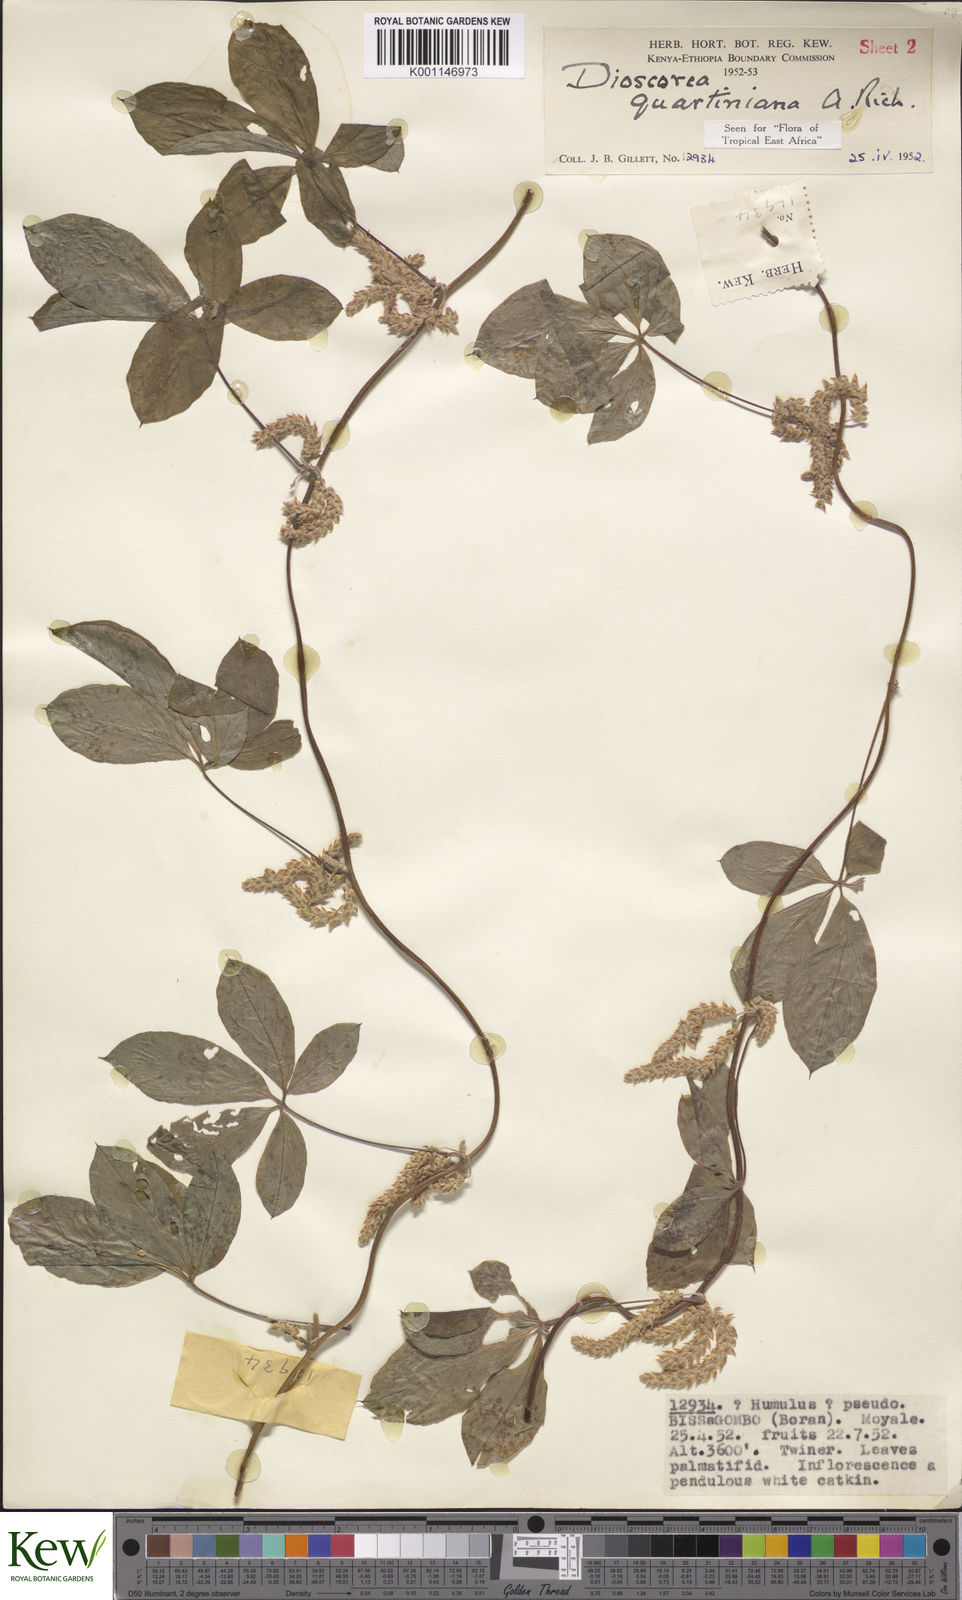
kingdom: Plantae
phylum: Tracheophyta
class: Liliopsida
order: Dioscoreales
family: Dioscoreaceae
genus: Dioscorea
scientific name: Dioscorea quartiniana
